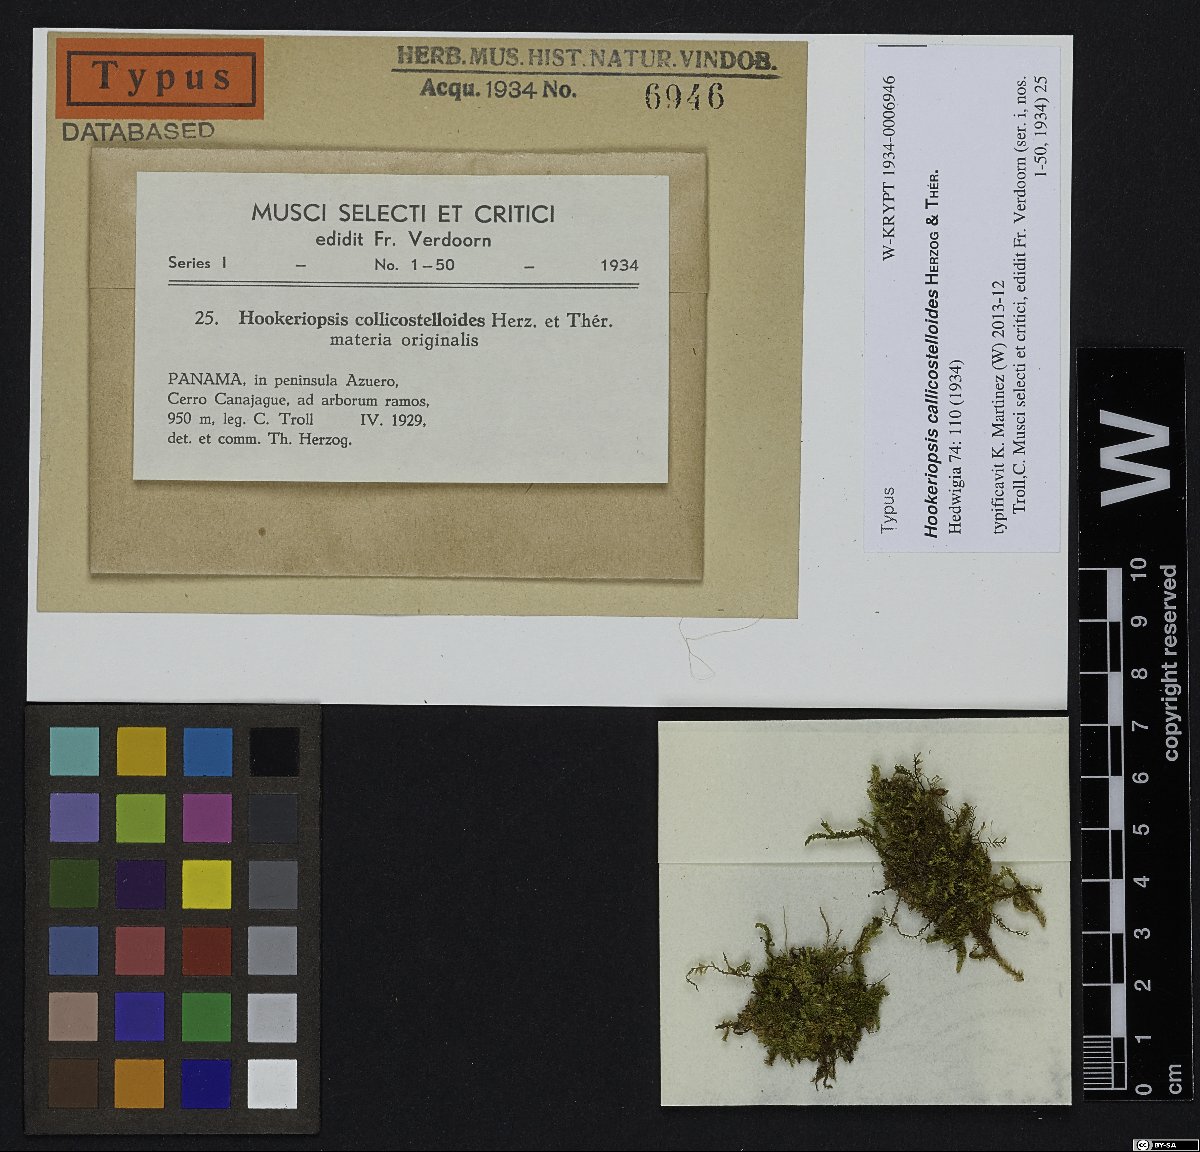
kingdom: Plantae
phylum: Bryophyta
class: Bryopsida
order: Hookeriales
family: Pilotrichaceae
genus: Callicostella
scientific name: Callicostella callicostelloides
